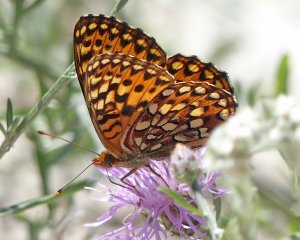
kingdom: Animalia
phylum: Arthropoda
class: Insecta
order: Lepidoptera
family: Nymphalidae
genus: Speyeria
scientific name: Speyeria hydaspe
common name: Hydaspe Fritillary
